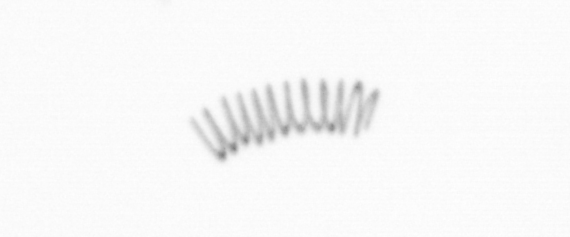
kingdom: Chromista
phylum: Ochrophyta
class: Bacillariophyceae
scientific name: Bacillariophyceae
